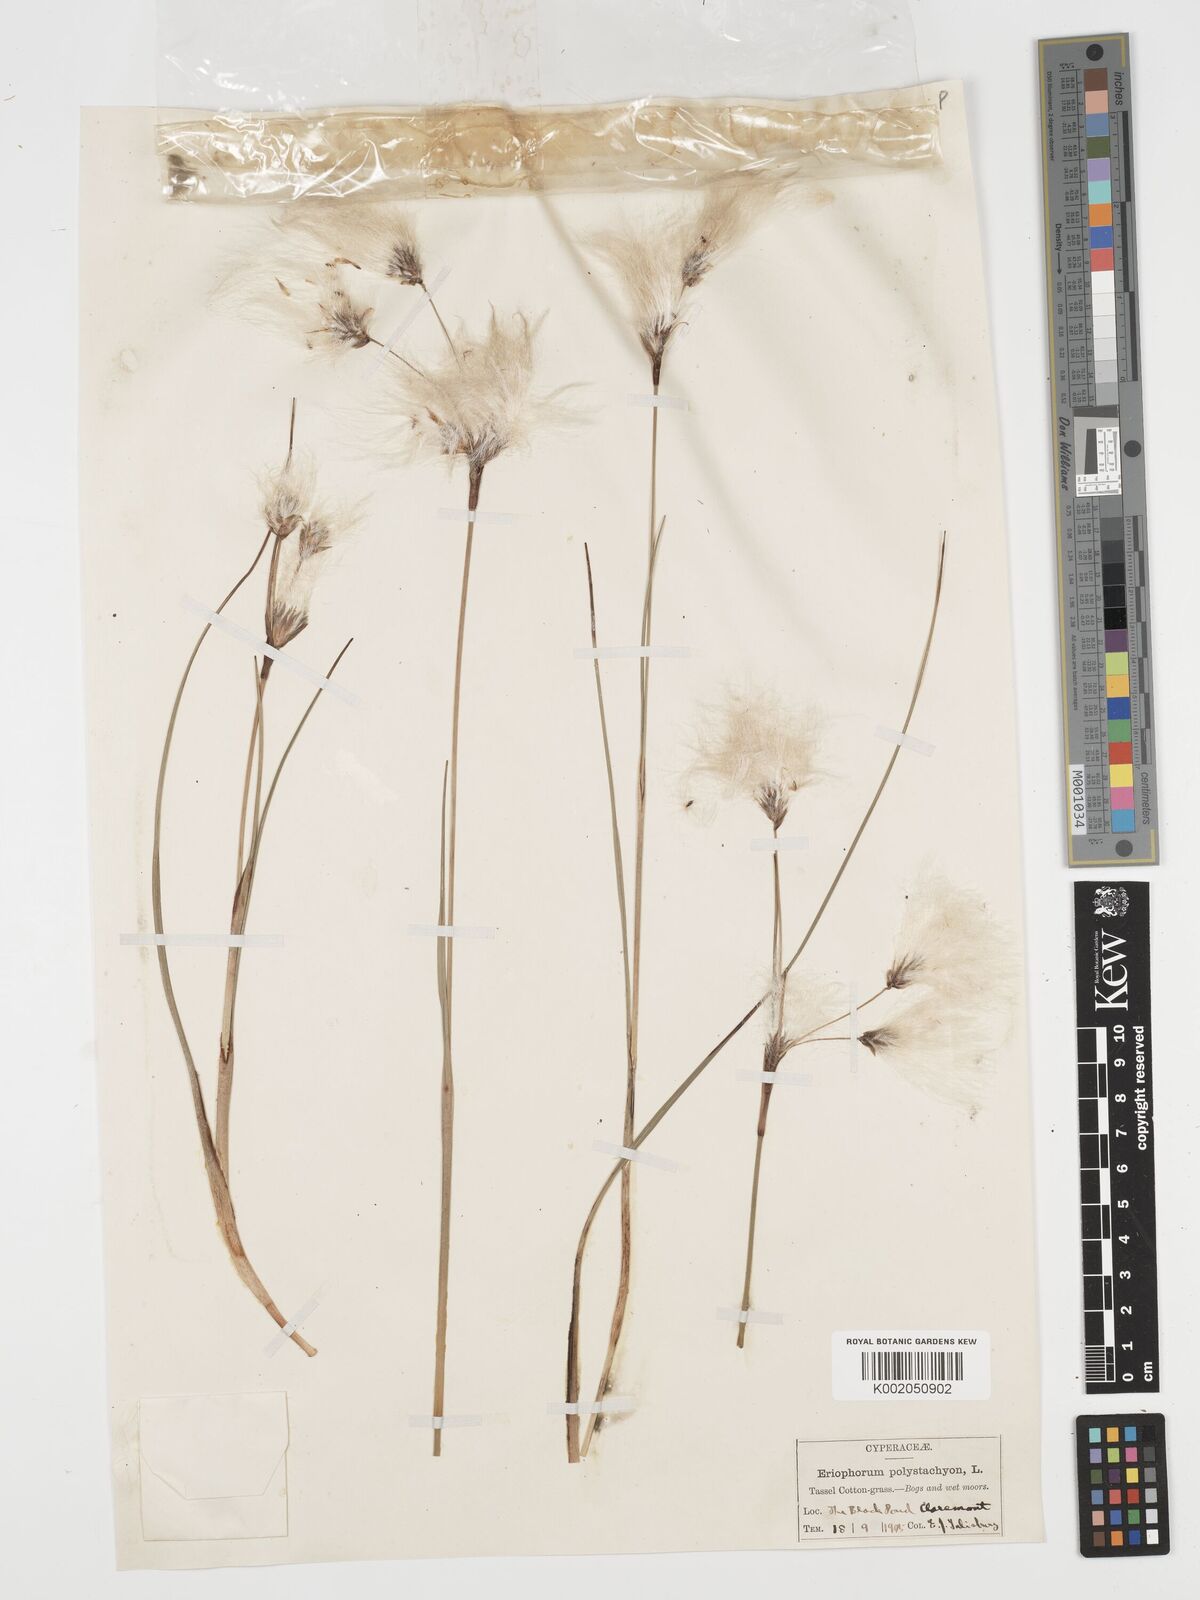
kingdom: Plantae
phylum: Tracheophyta
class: Liliopsida
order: Poales
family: Cyperaceae
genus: Eriophorum
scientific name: Eriophorum angustifolium
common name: Common cottongrass
